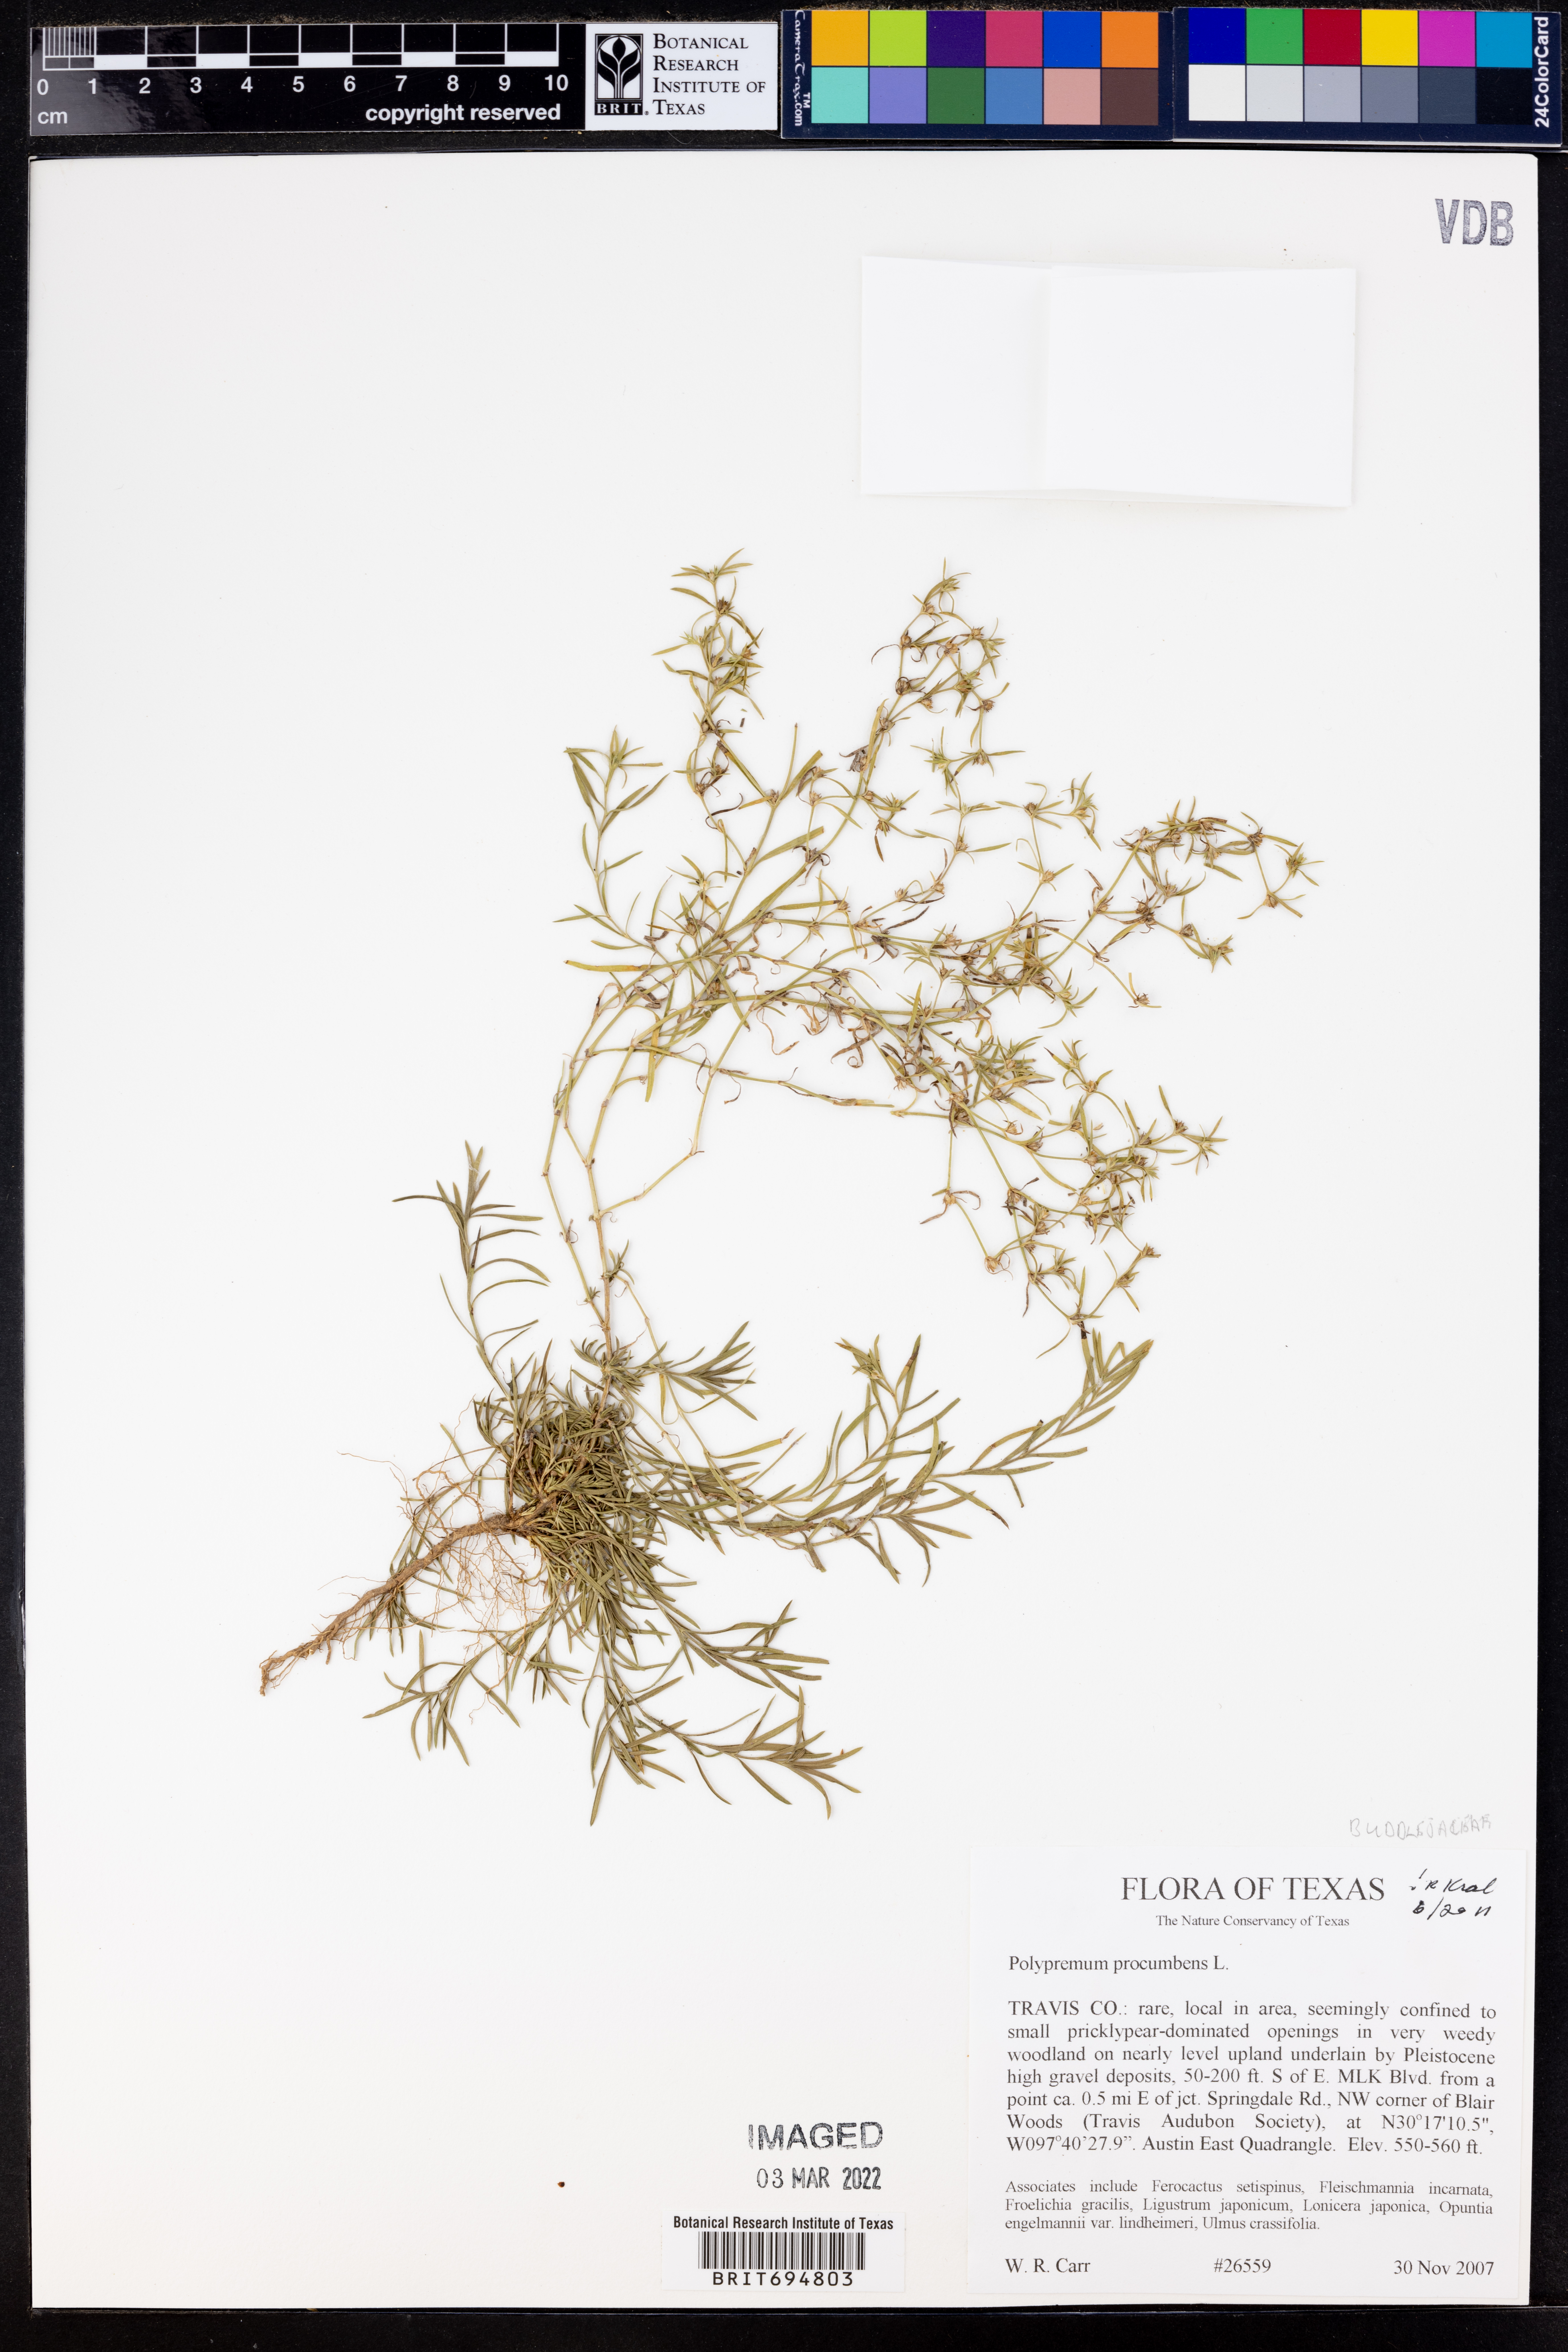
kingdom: Plantae
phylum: Tracheophyta
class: Magnoliopsida
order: Lamiales
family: Tetrachondraceae
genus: Polypremum
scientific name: Polypremum procumbens
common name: Juniper-leaf
